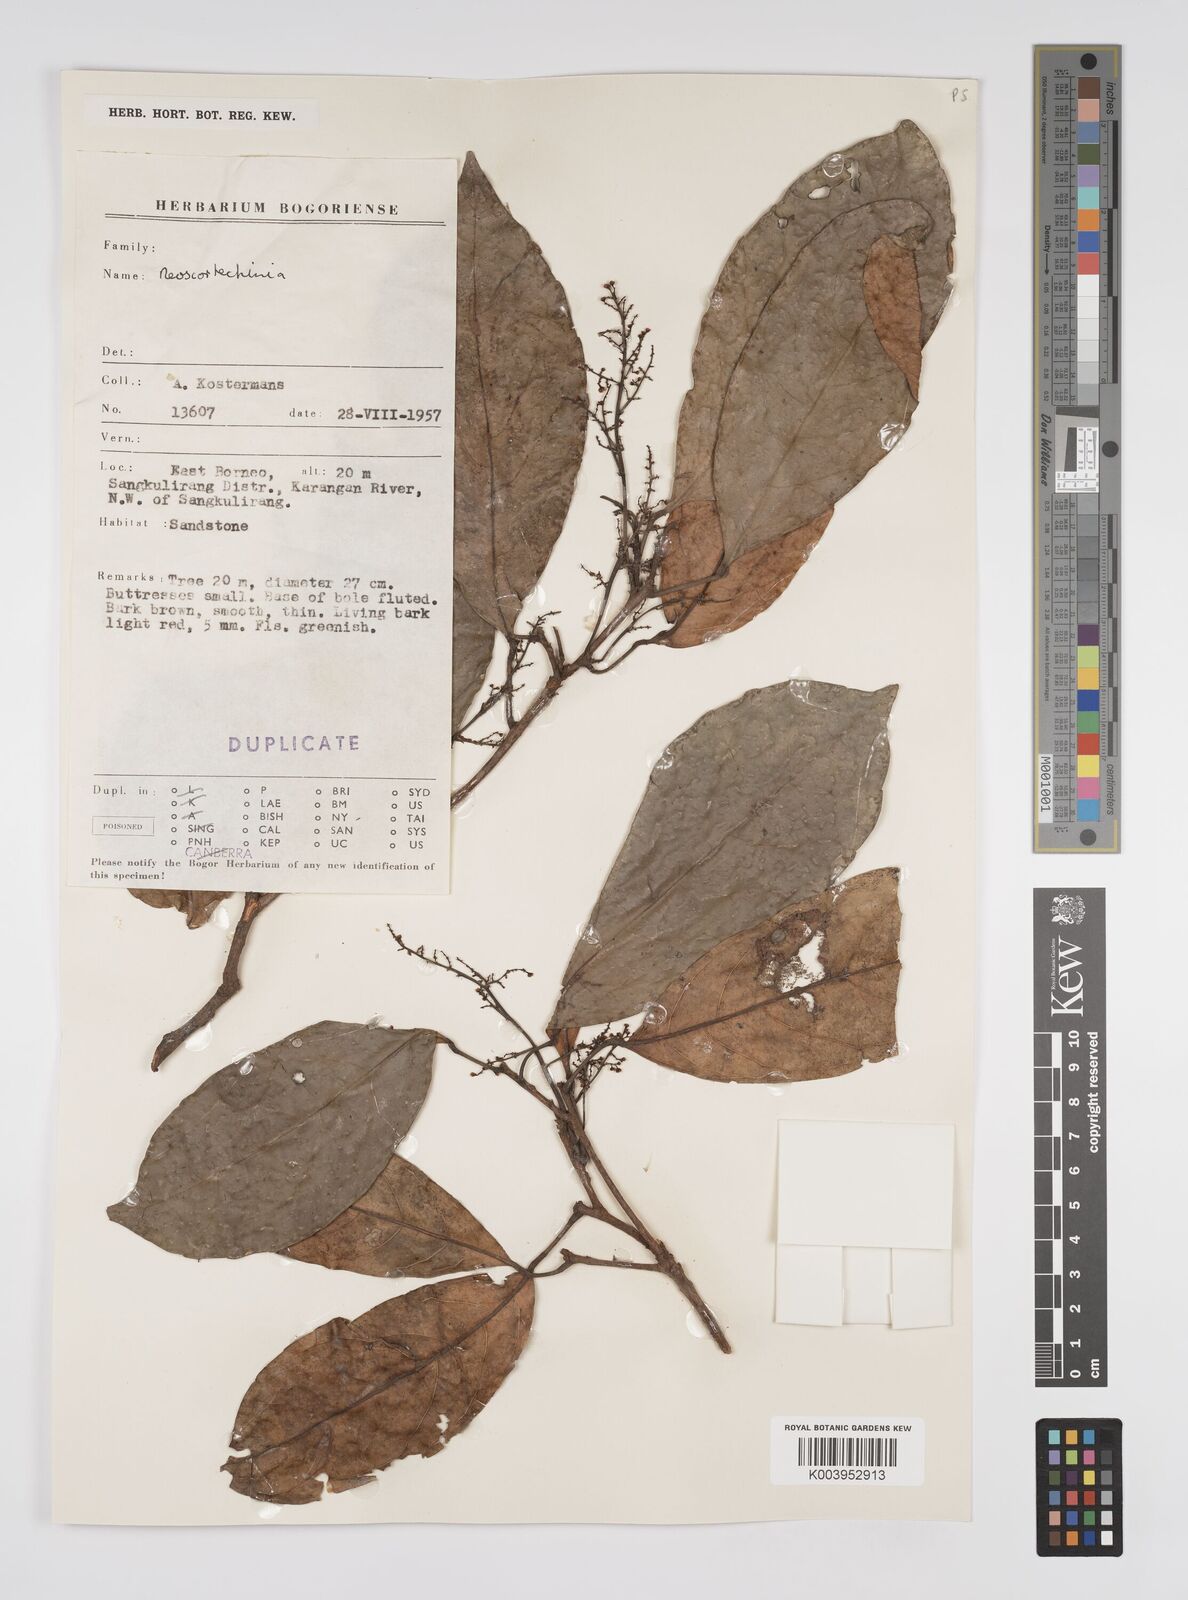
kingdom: Plantae
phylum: Tracheophyta
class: Magnoliopsida
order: Malpighiales
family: Euphorbiaceae
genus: Neoscortechinia
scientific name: Neoscortechinia philippinensis
